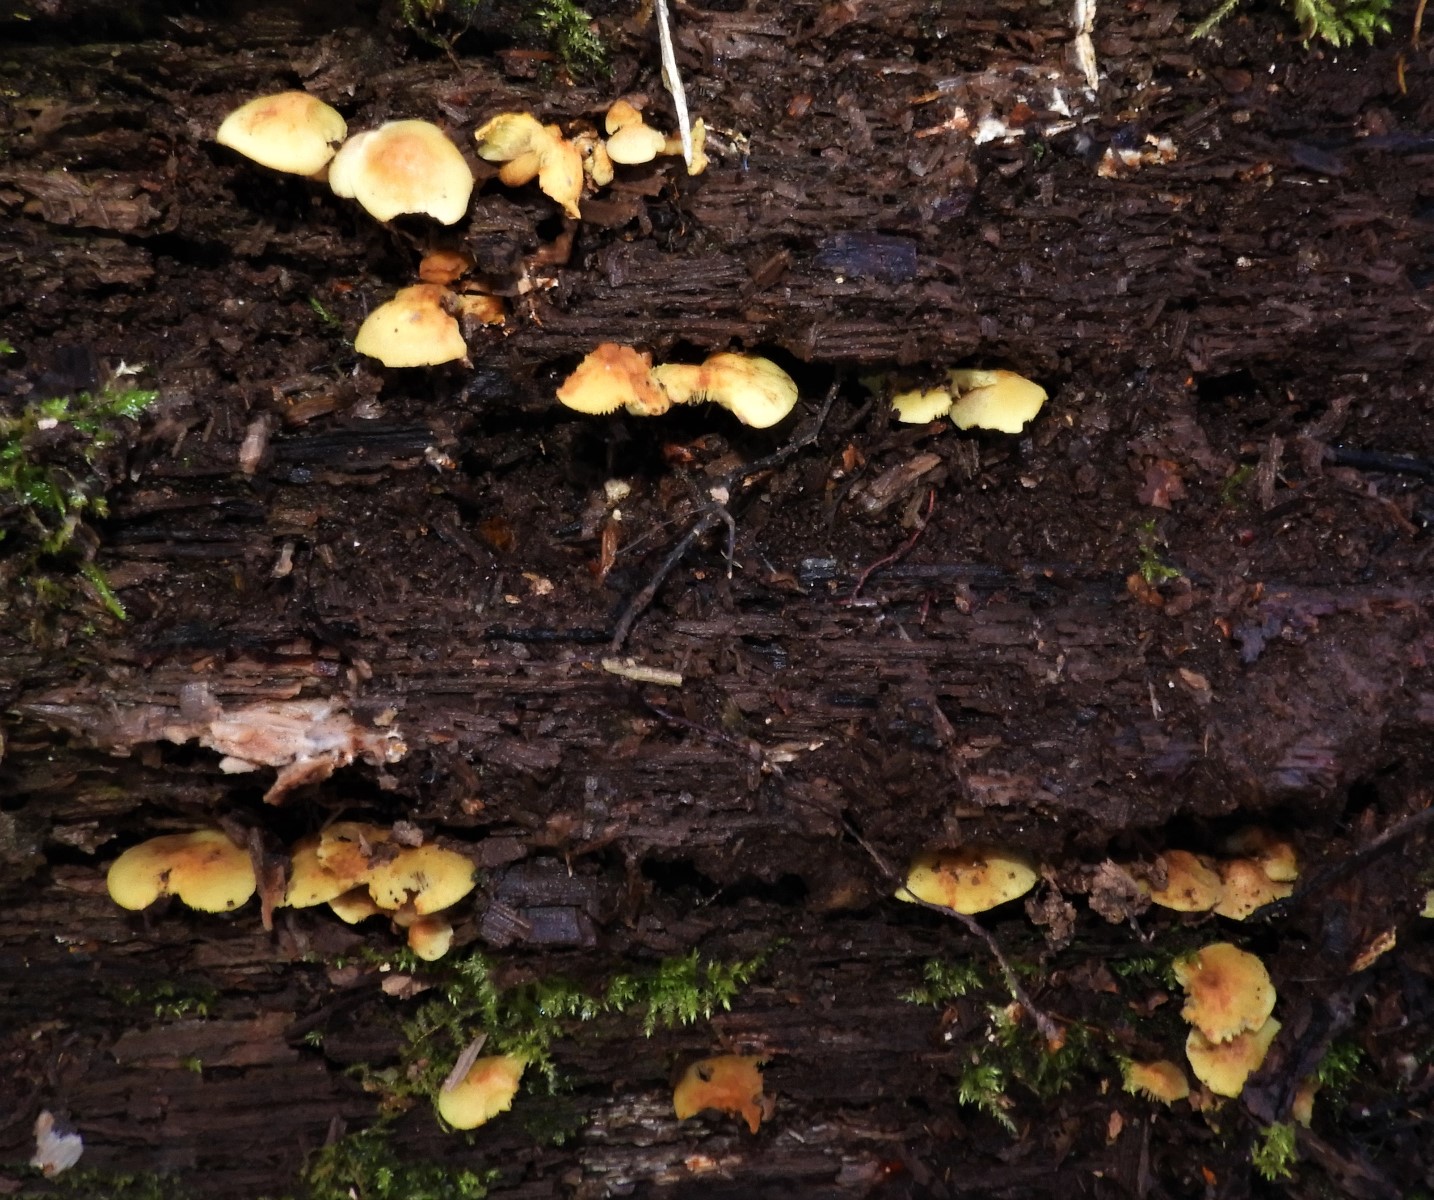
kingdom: Fungi
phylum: Basidiomycota
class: Agaricomycetes
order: Agaricales
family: Strophariaceae
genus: Hypholoma
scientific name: Hypholoma fasciculare
